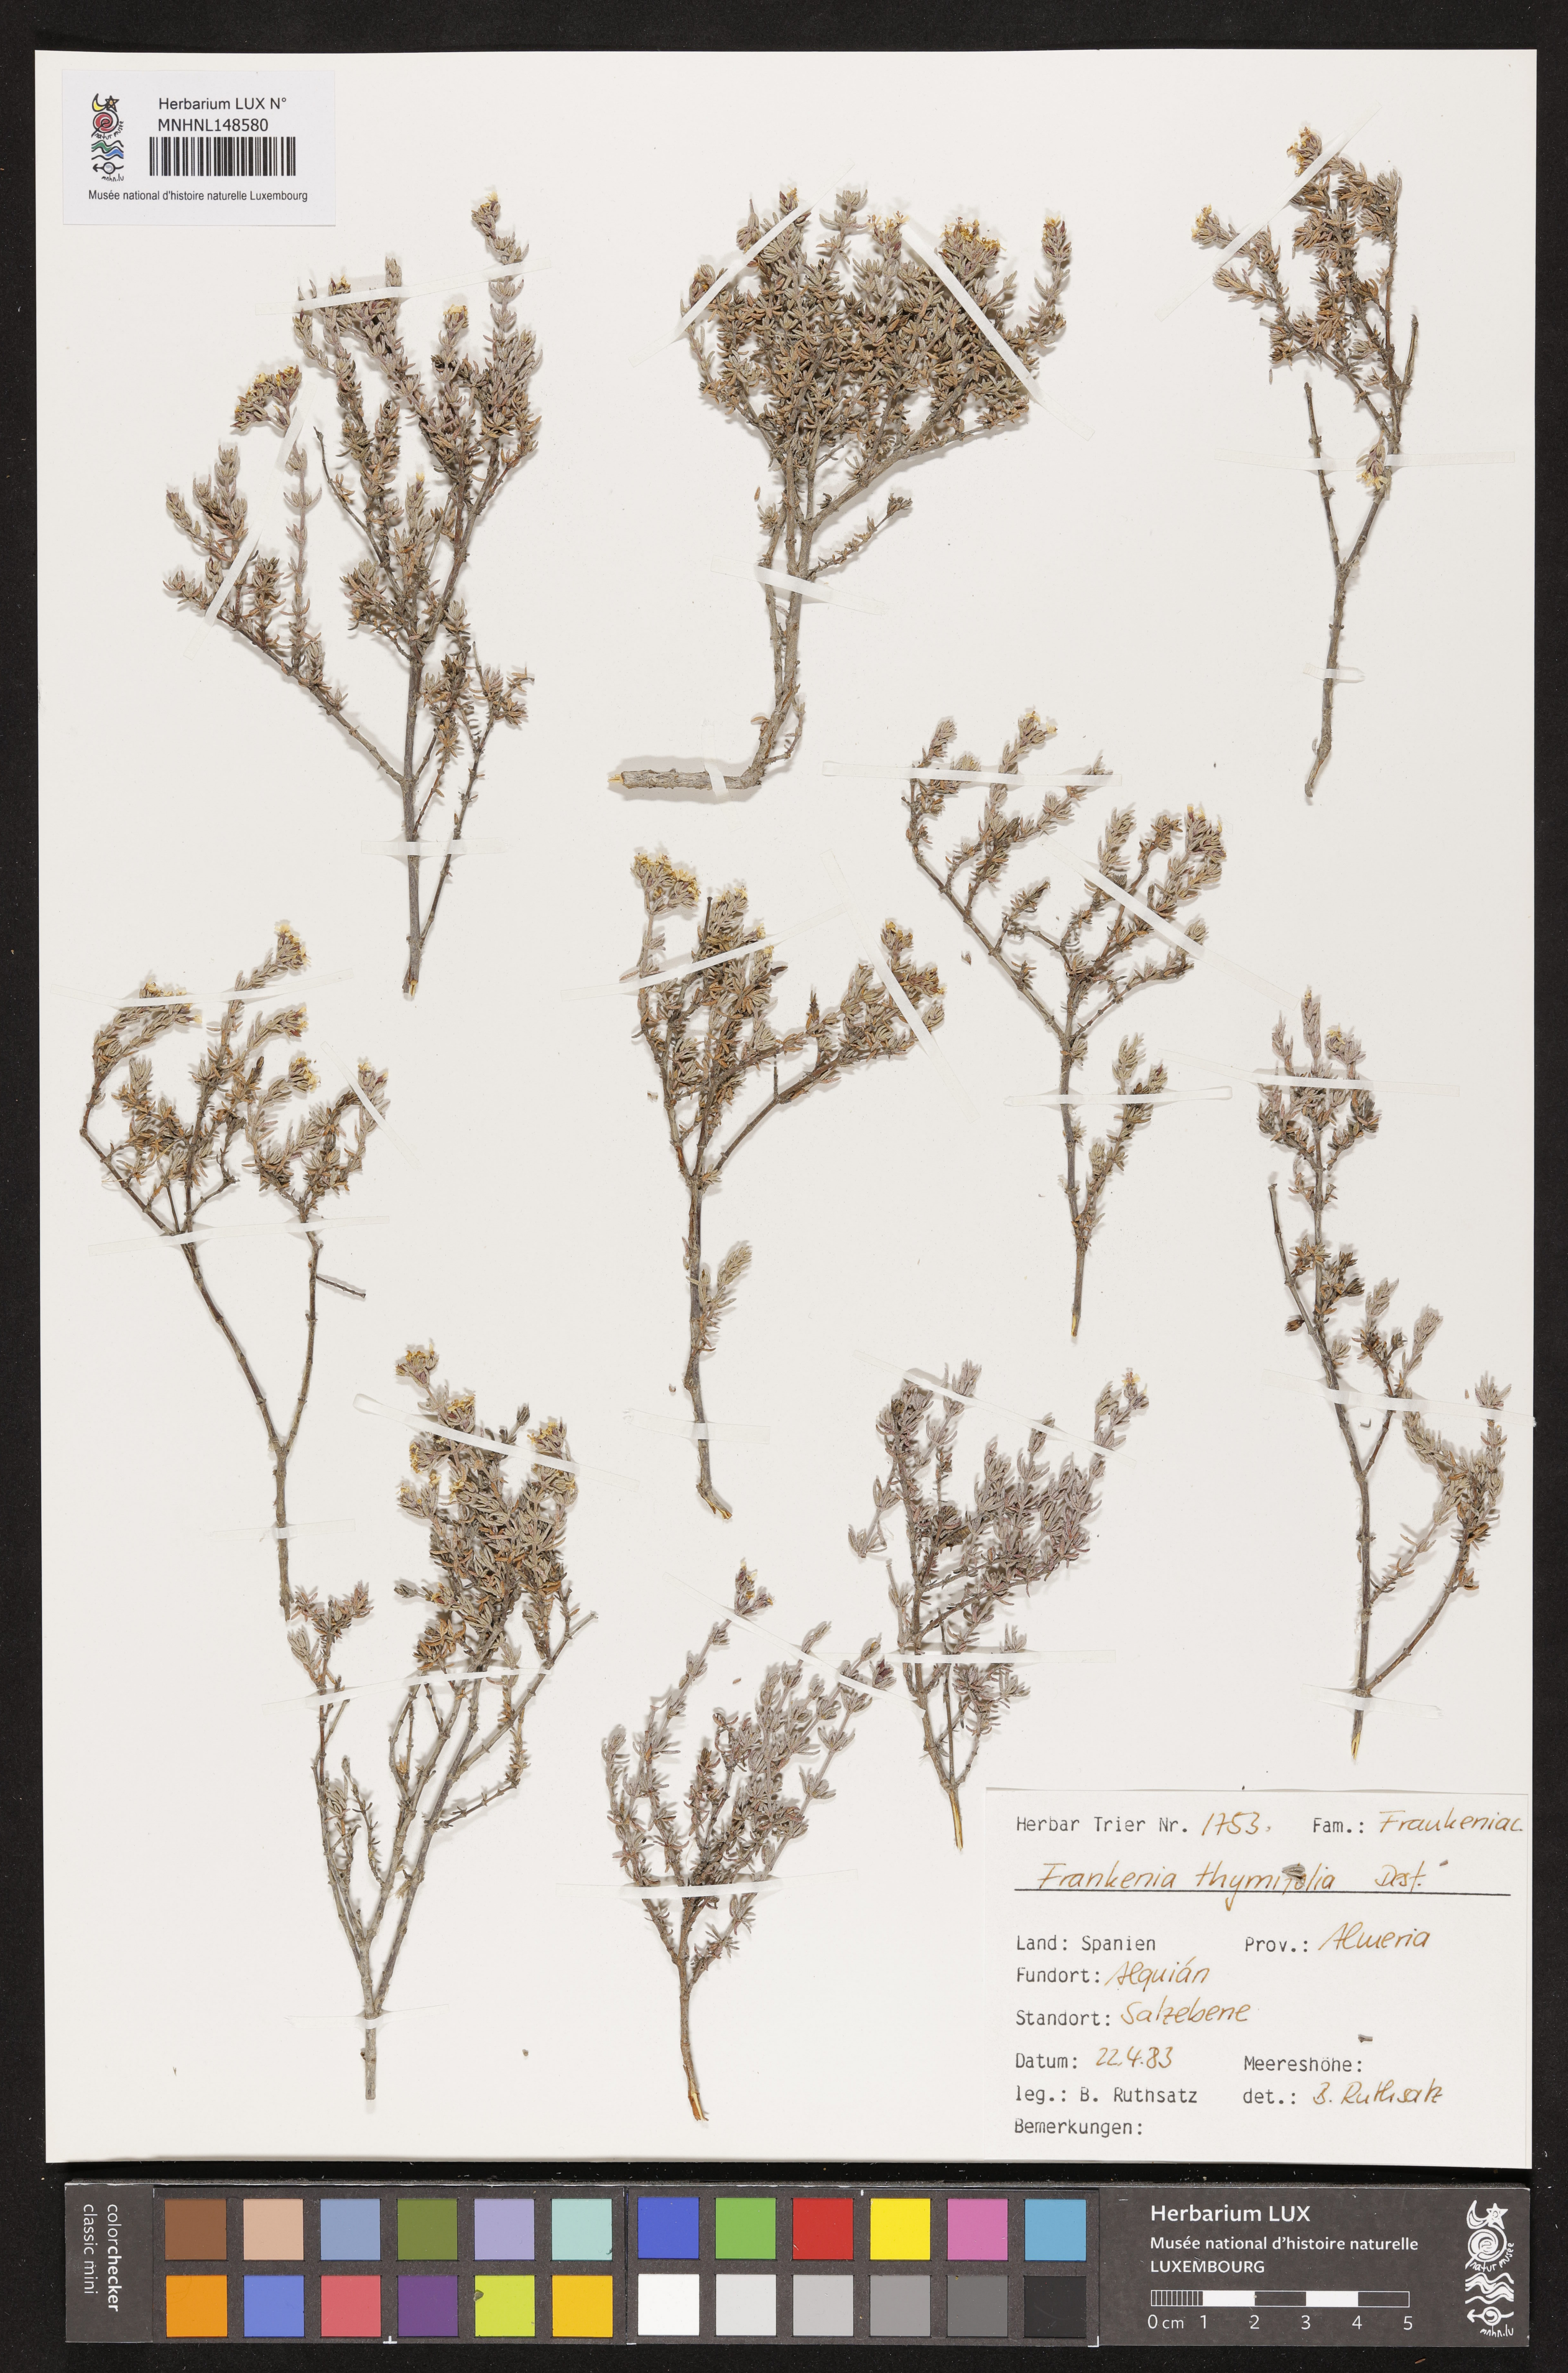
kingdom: Plantae
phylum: Tracheophyta
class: Magnoliopsida
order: Caryophyllales
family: Frankeniaceae
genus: Frankenia
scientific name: Frankenia thymifolia
